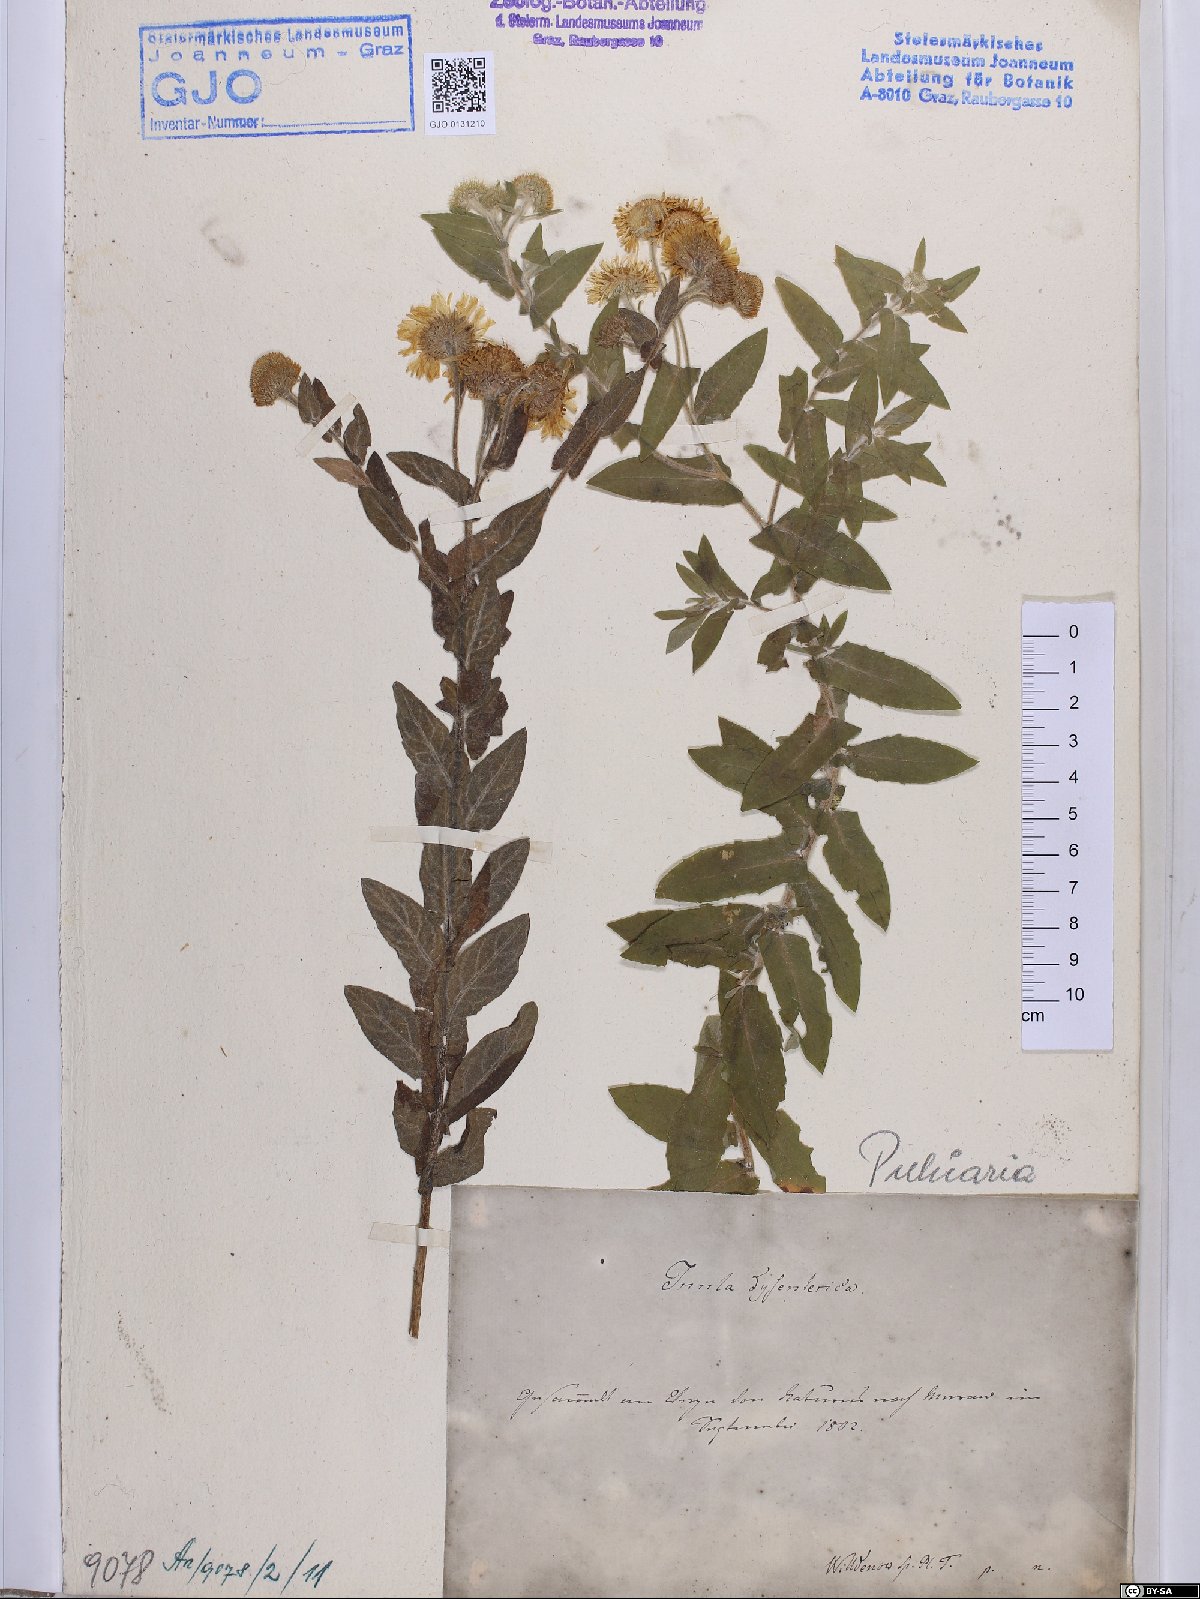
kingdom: Plantae
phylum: Tracheophyta
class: Magnoliopsida
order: Asterales
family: Asteraceae
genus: Pulicaria
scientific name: Pulicaria dysenterica
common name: Common fleabane
